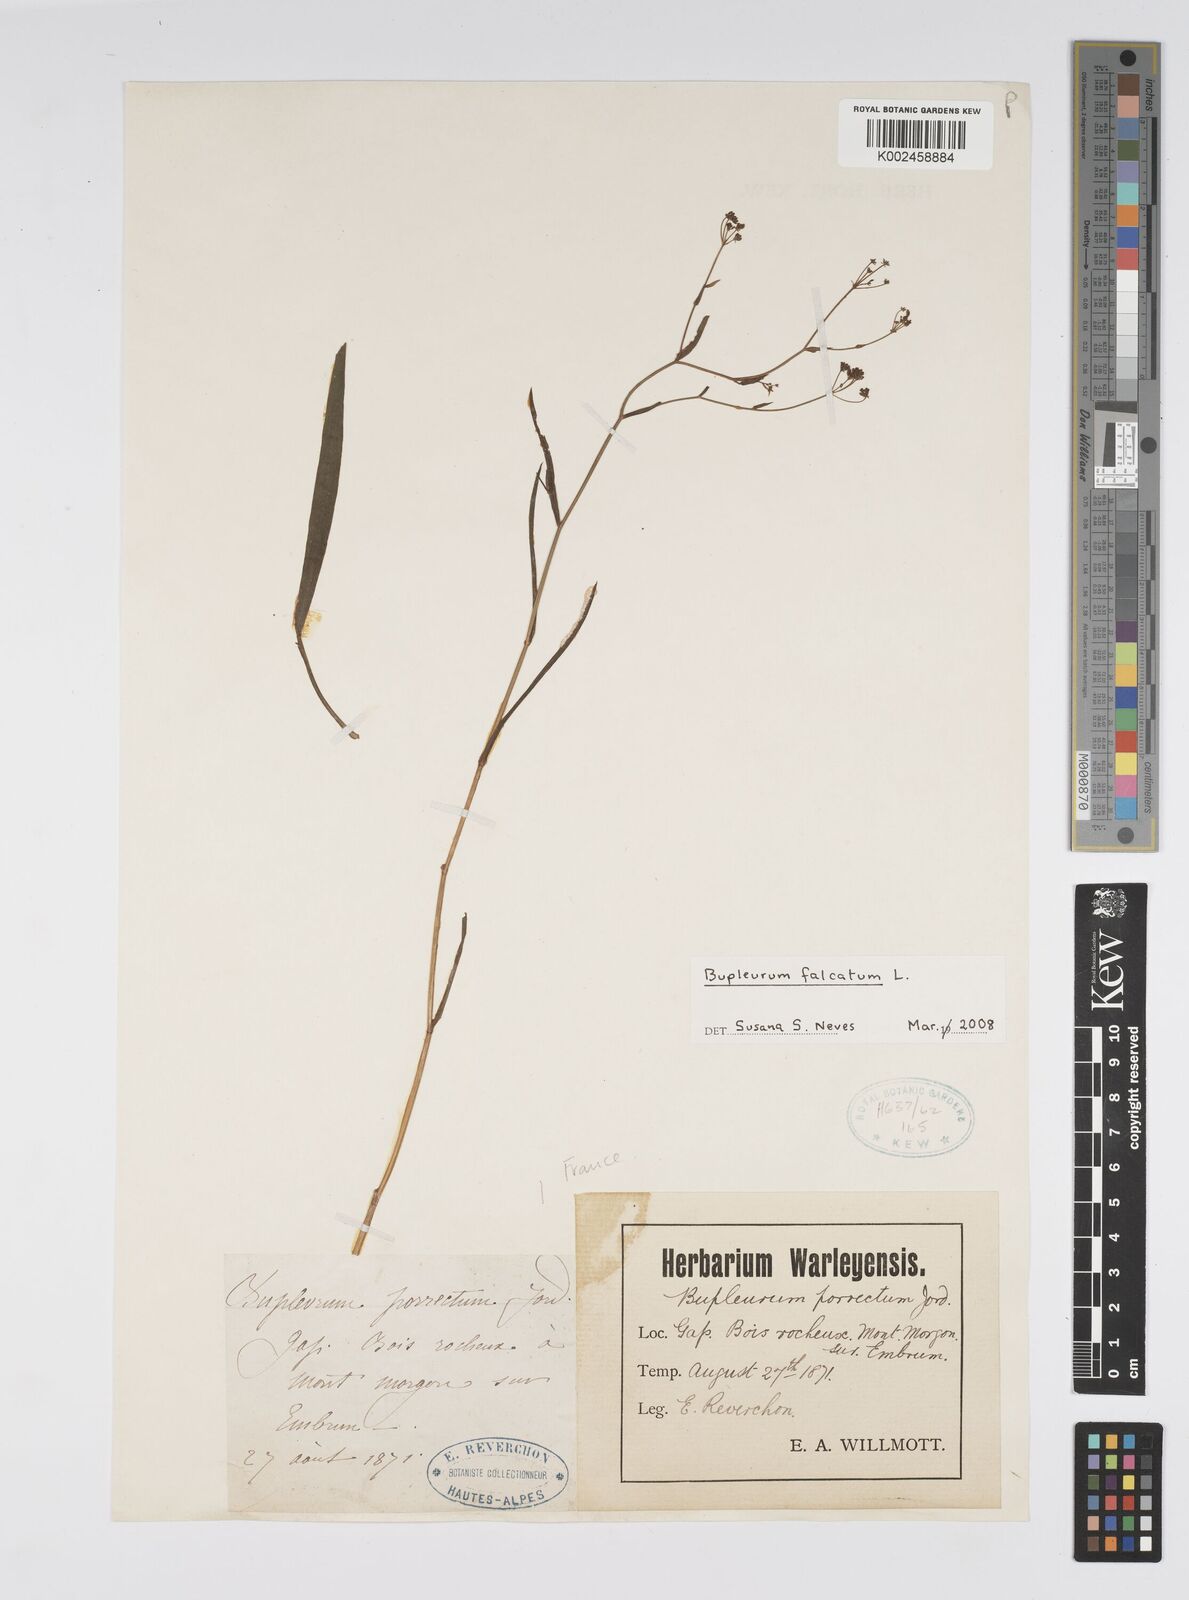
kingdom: Plantae
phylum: Tracheophyta
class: Magnoliopsida
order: Apiales
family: Apiaceae
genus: Bupleurum
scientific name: Bupleurum falcatum
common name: Sickle-leaved hare's-ear
